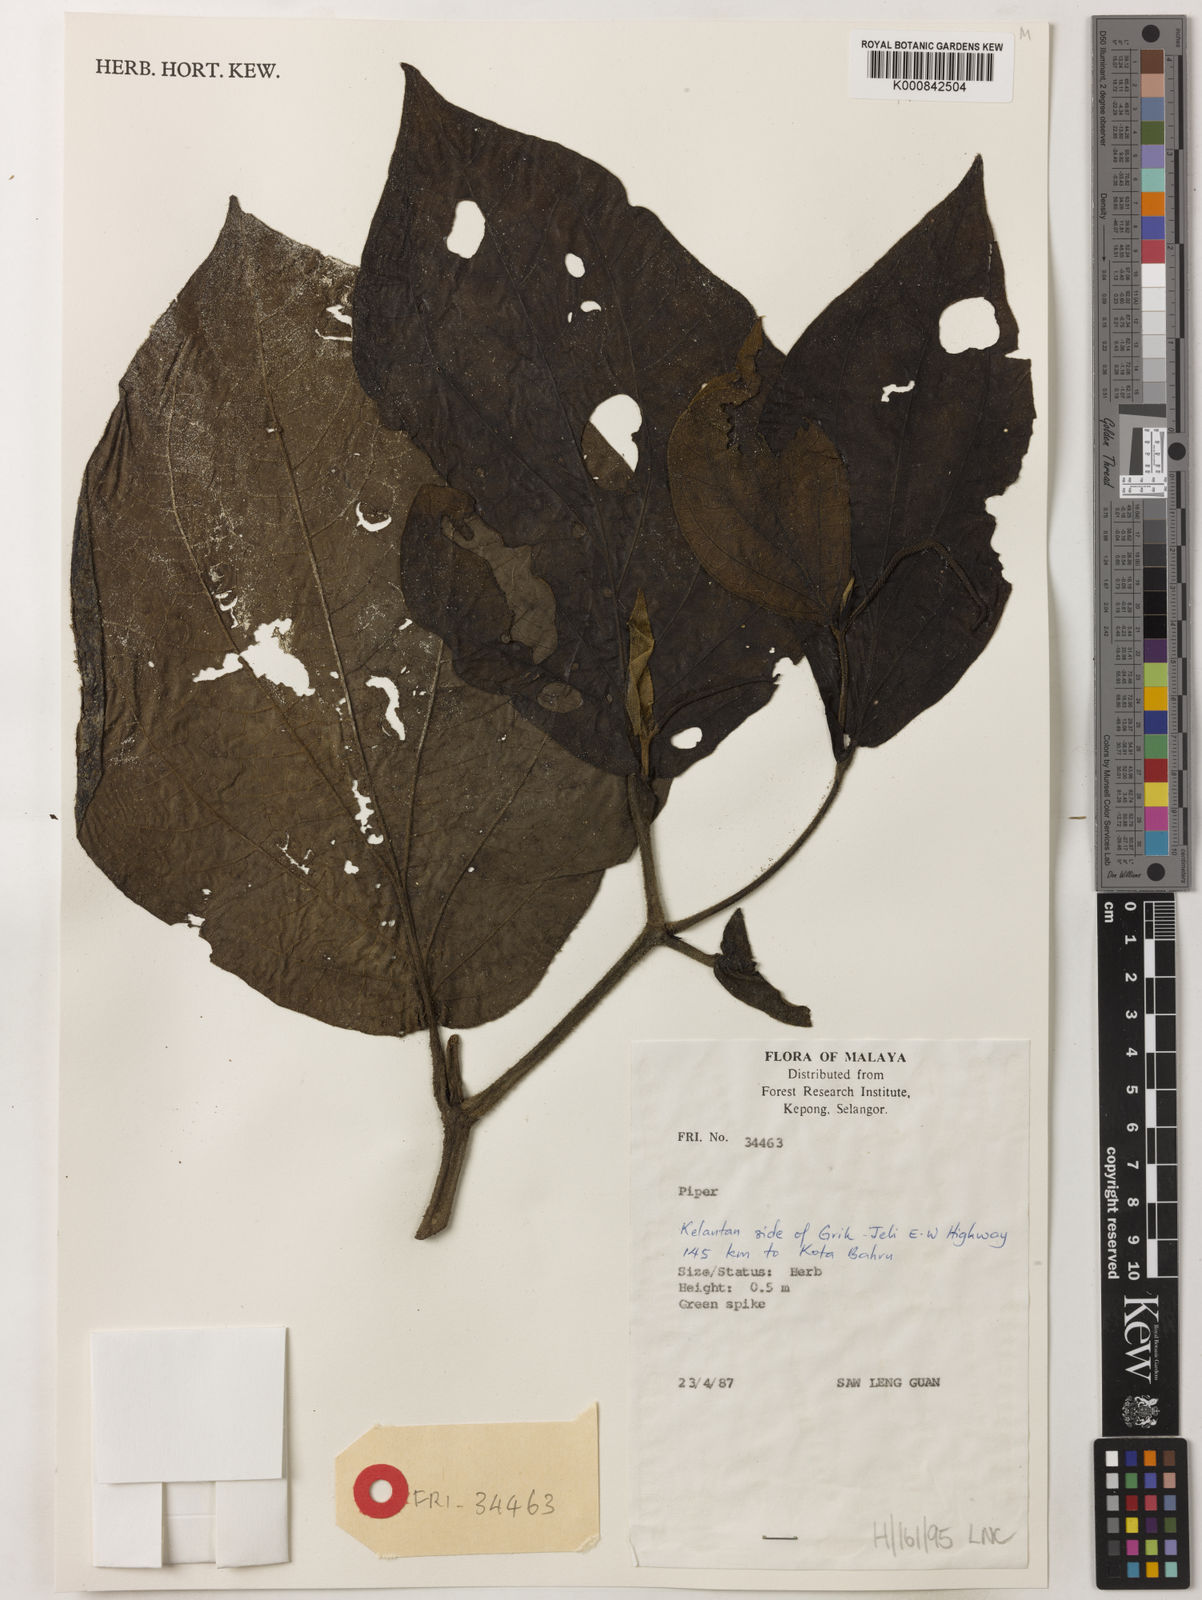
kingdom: Plantae
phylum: Tracheophyta
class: Magnoliopsida
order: Piperales
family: Piperaceae
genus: Piper
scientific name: Piper
